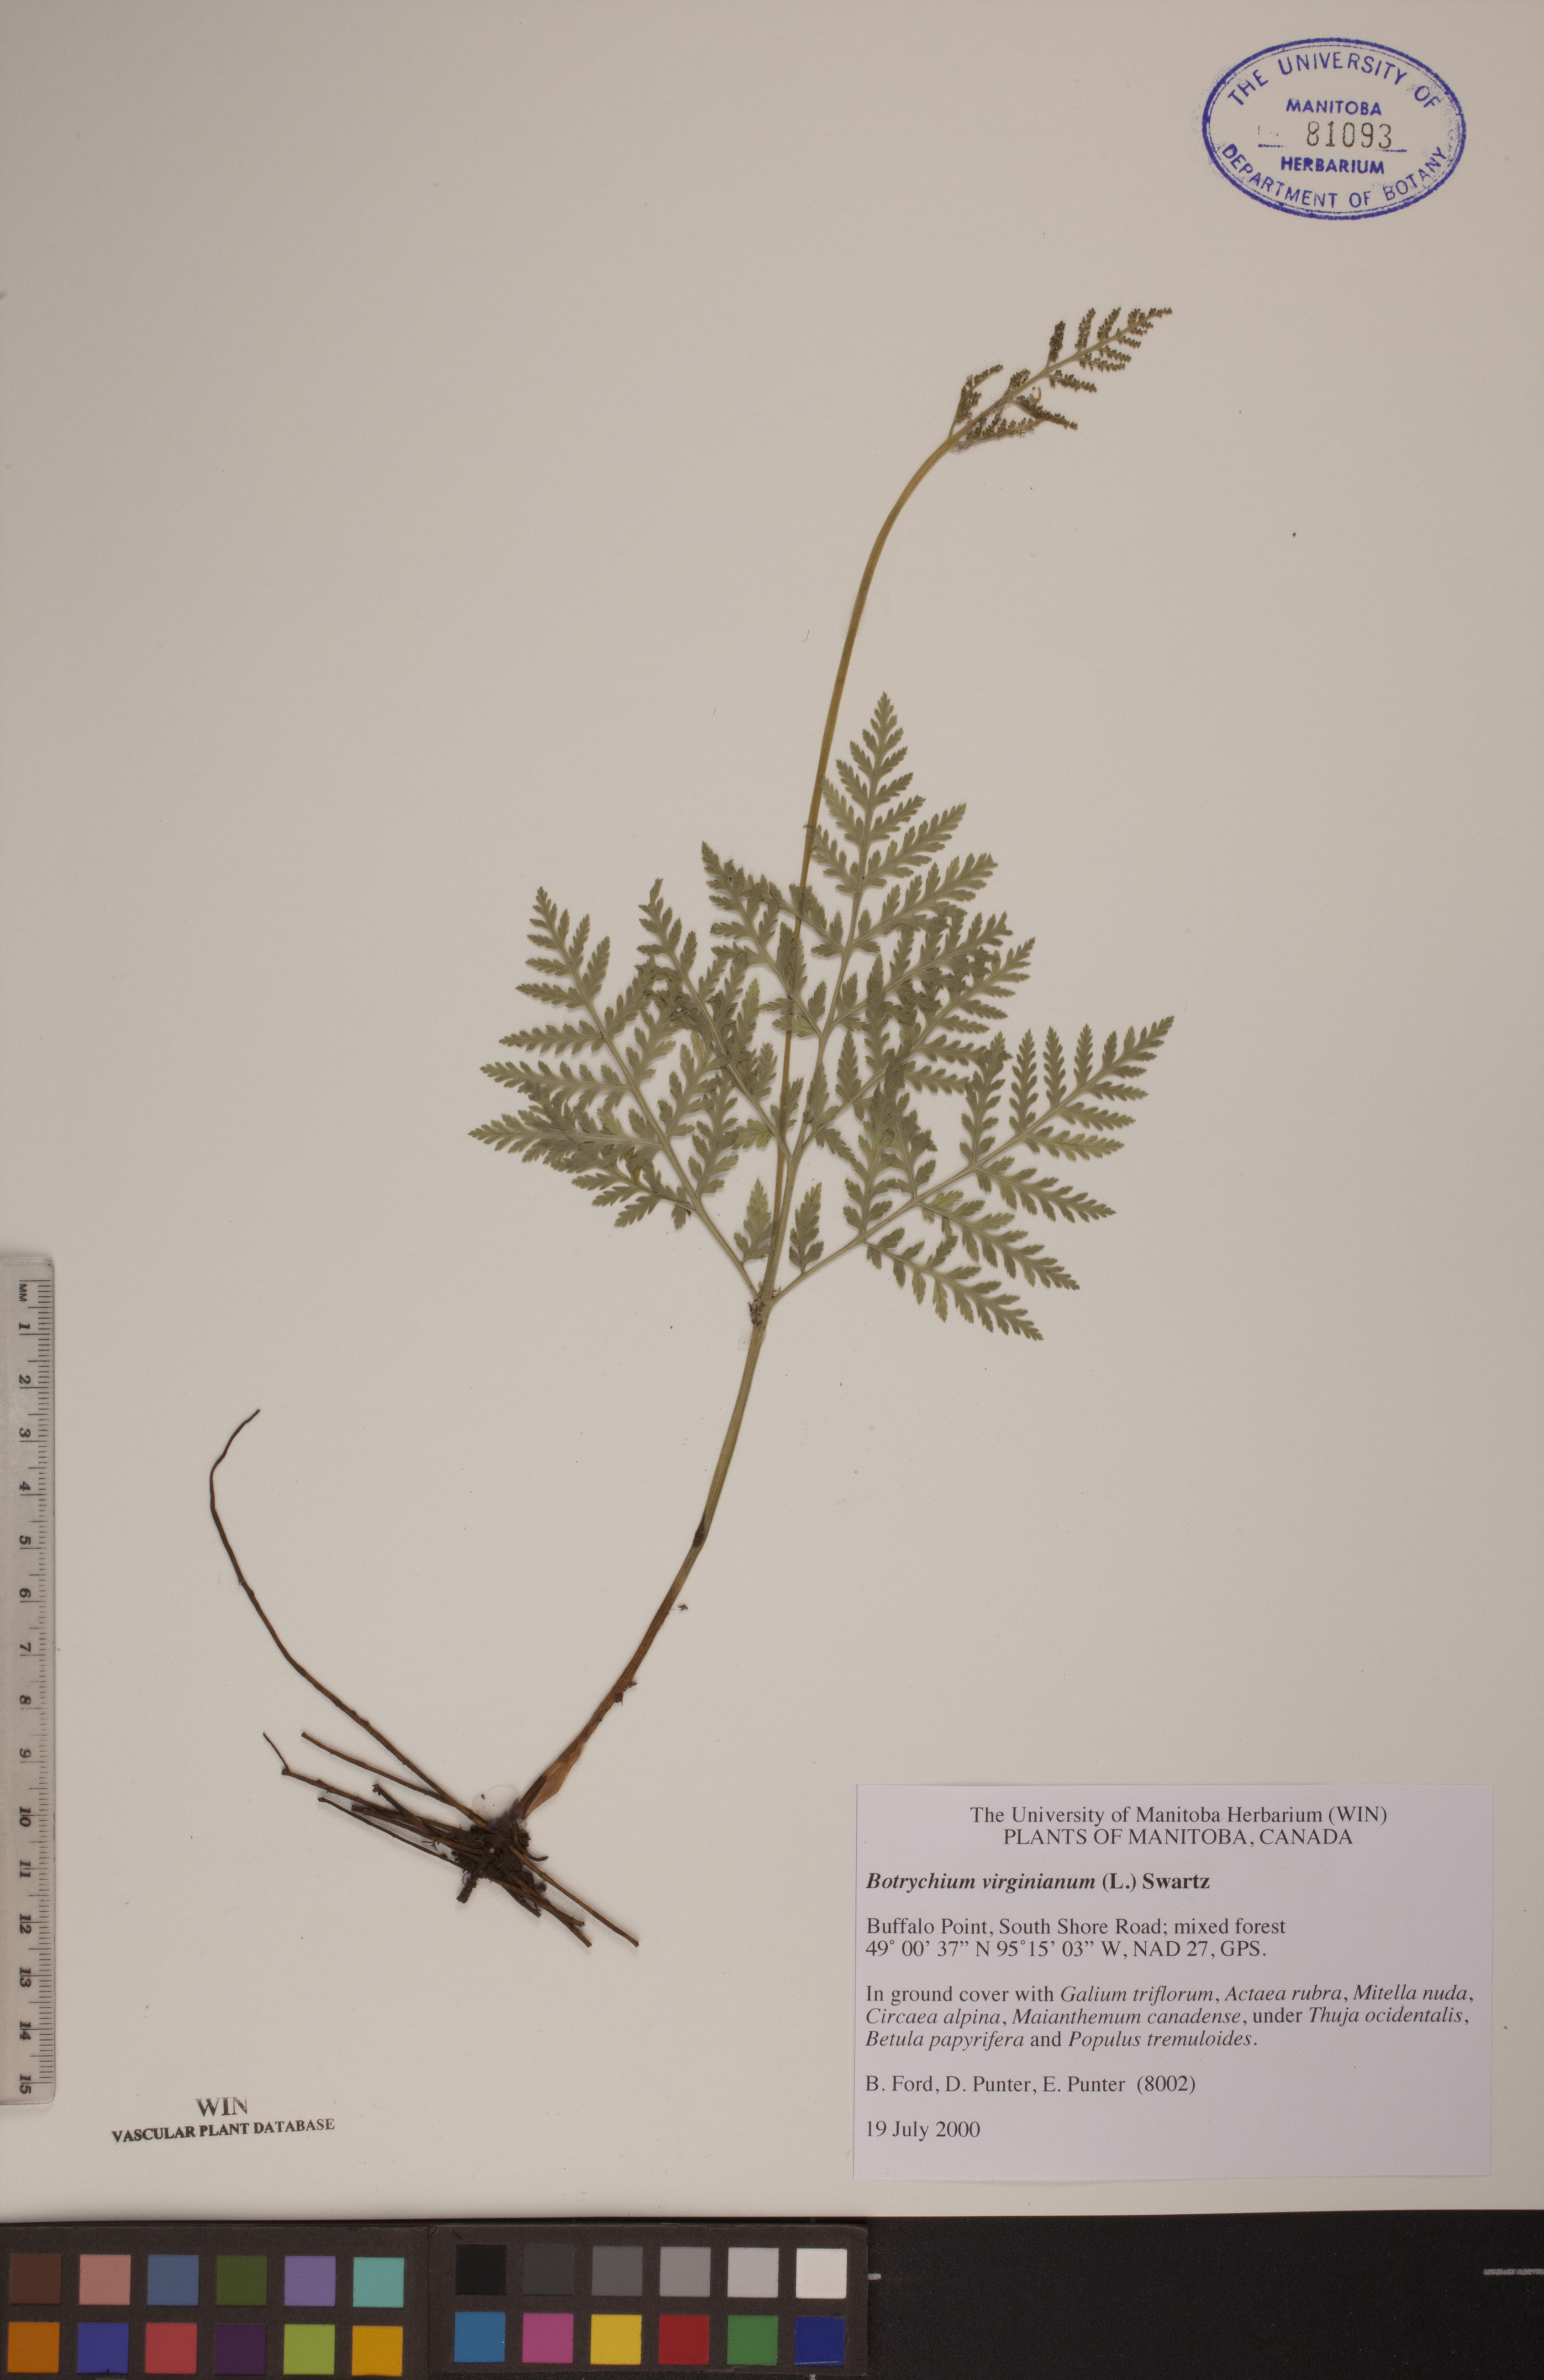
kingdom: Plantae
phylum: Tracheophyta
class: Polypodiopsida
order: Ophioglossales
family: Ophioglossaceae
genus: Botrypus
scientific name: Botrypus virginianus
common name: Common grapefern
